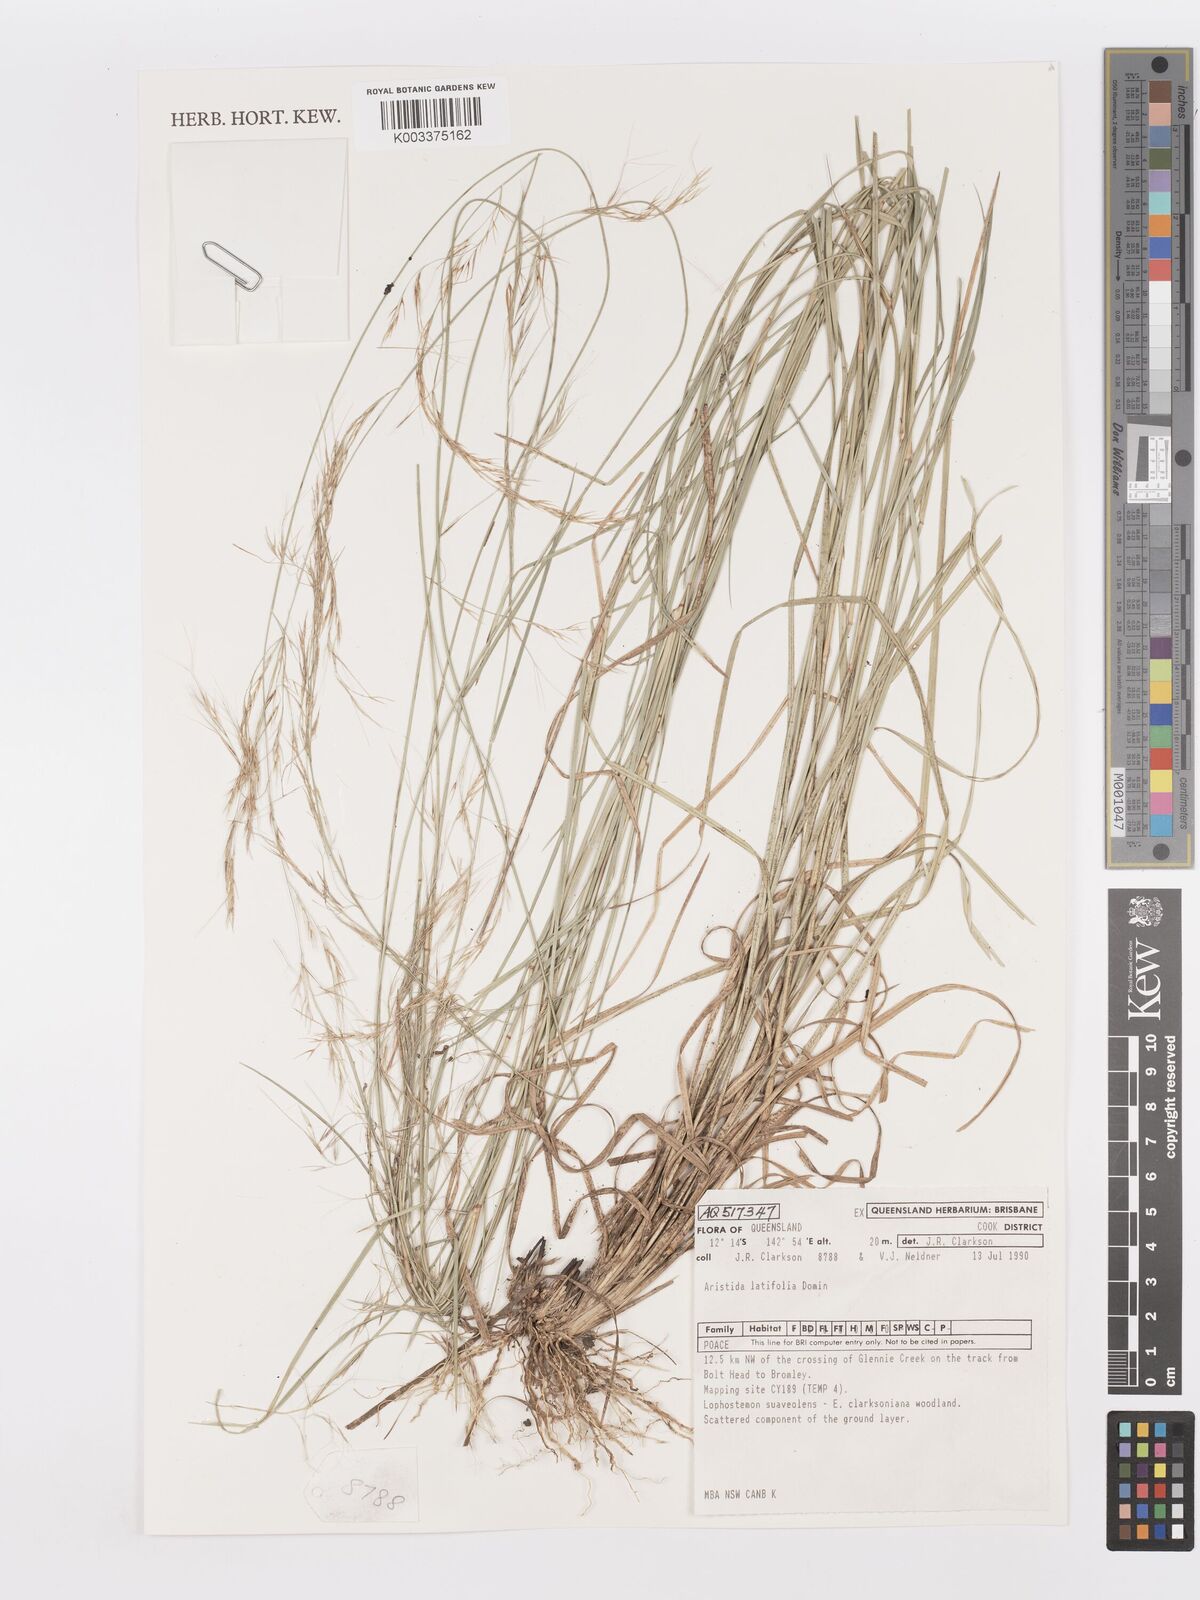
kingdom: Plantae
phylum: Tracheophyta
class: Liliopsida
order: Poales
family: Poaceae
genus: Aristida
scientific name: Aristida latifolia
